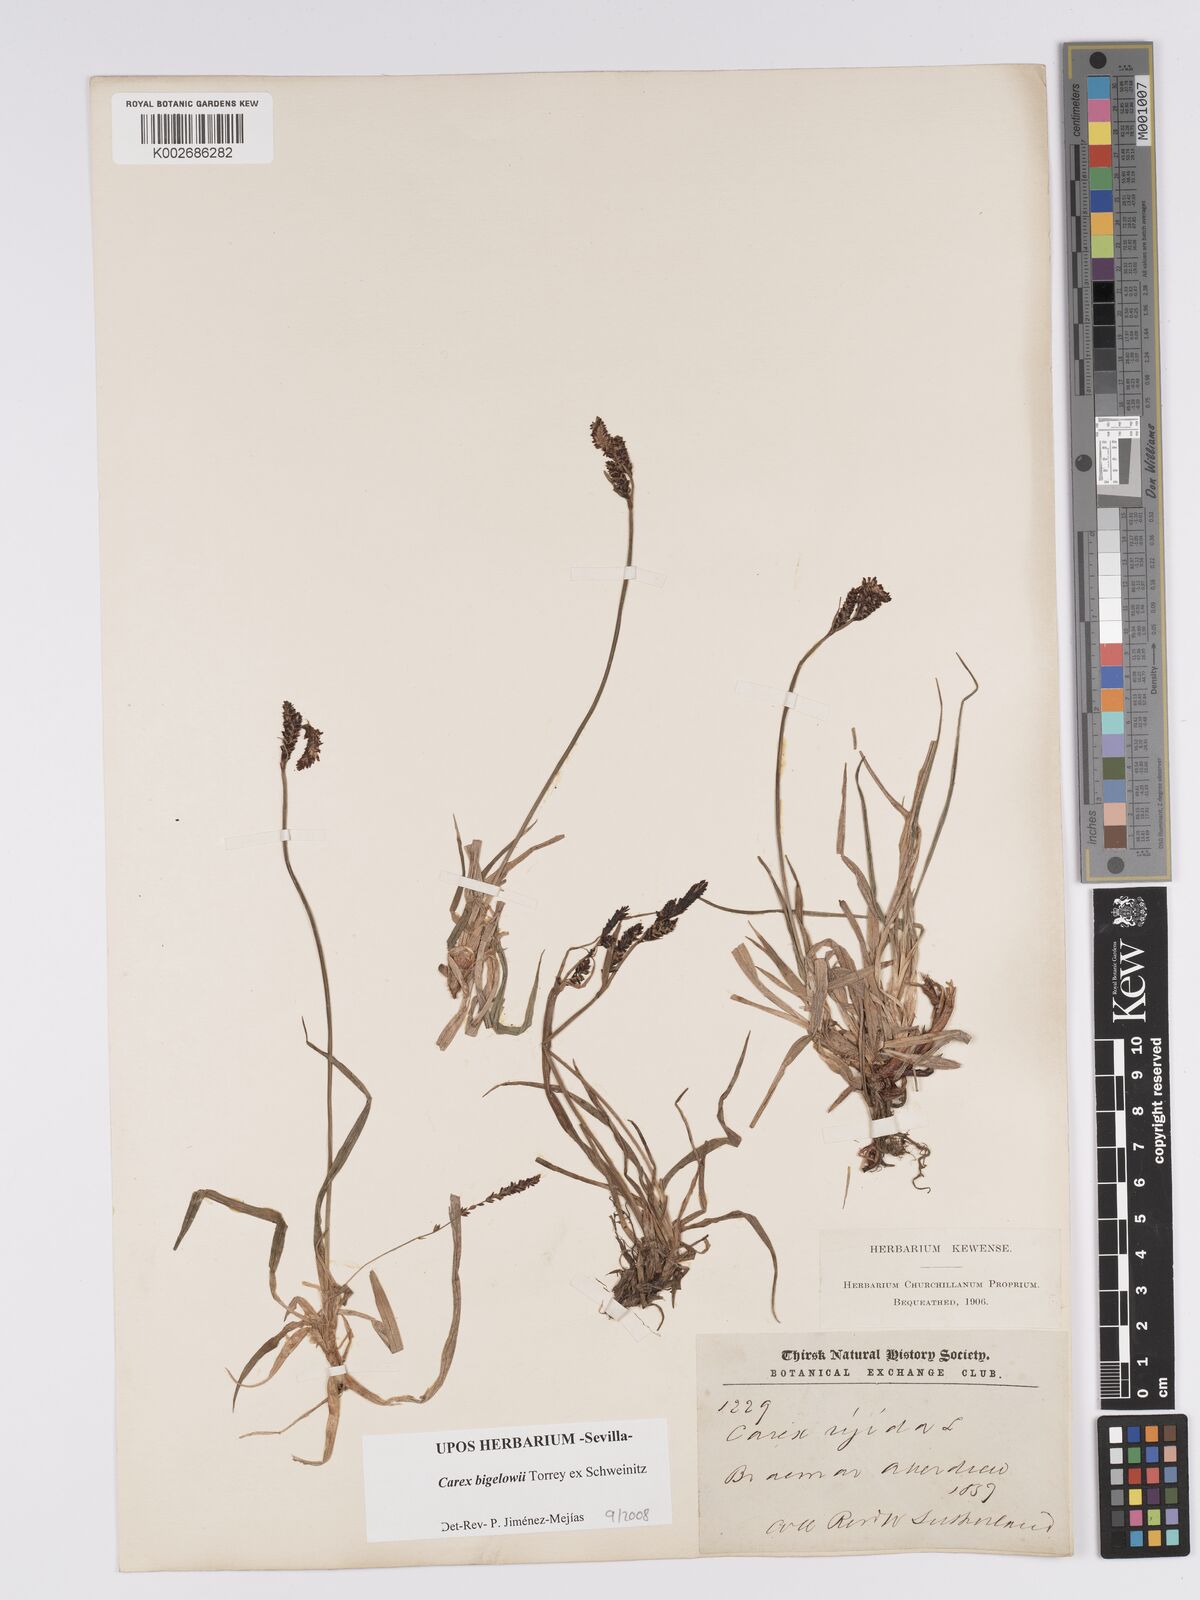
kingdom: Plantae
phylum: Tracheophyta
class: Liliopsida
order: Poales
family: Cyperaceae
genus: Carex
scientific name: Carex bigelowii
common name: Stiff sedge
